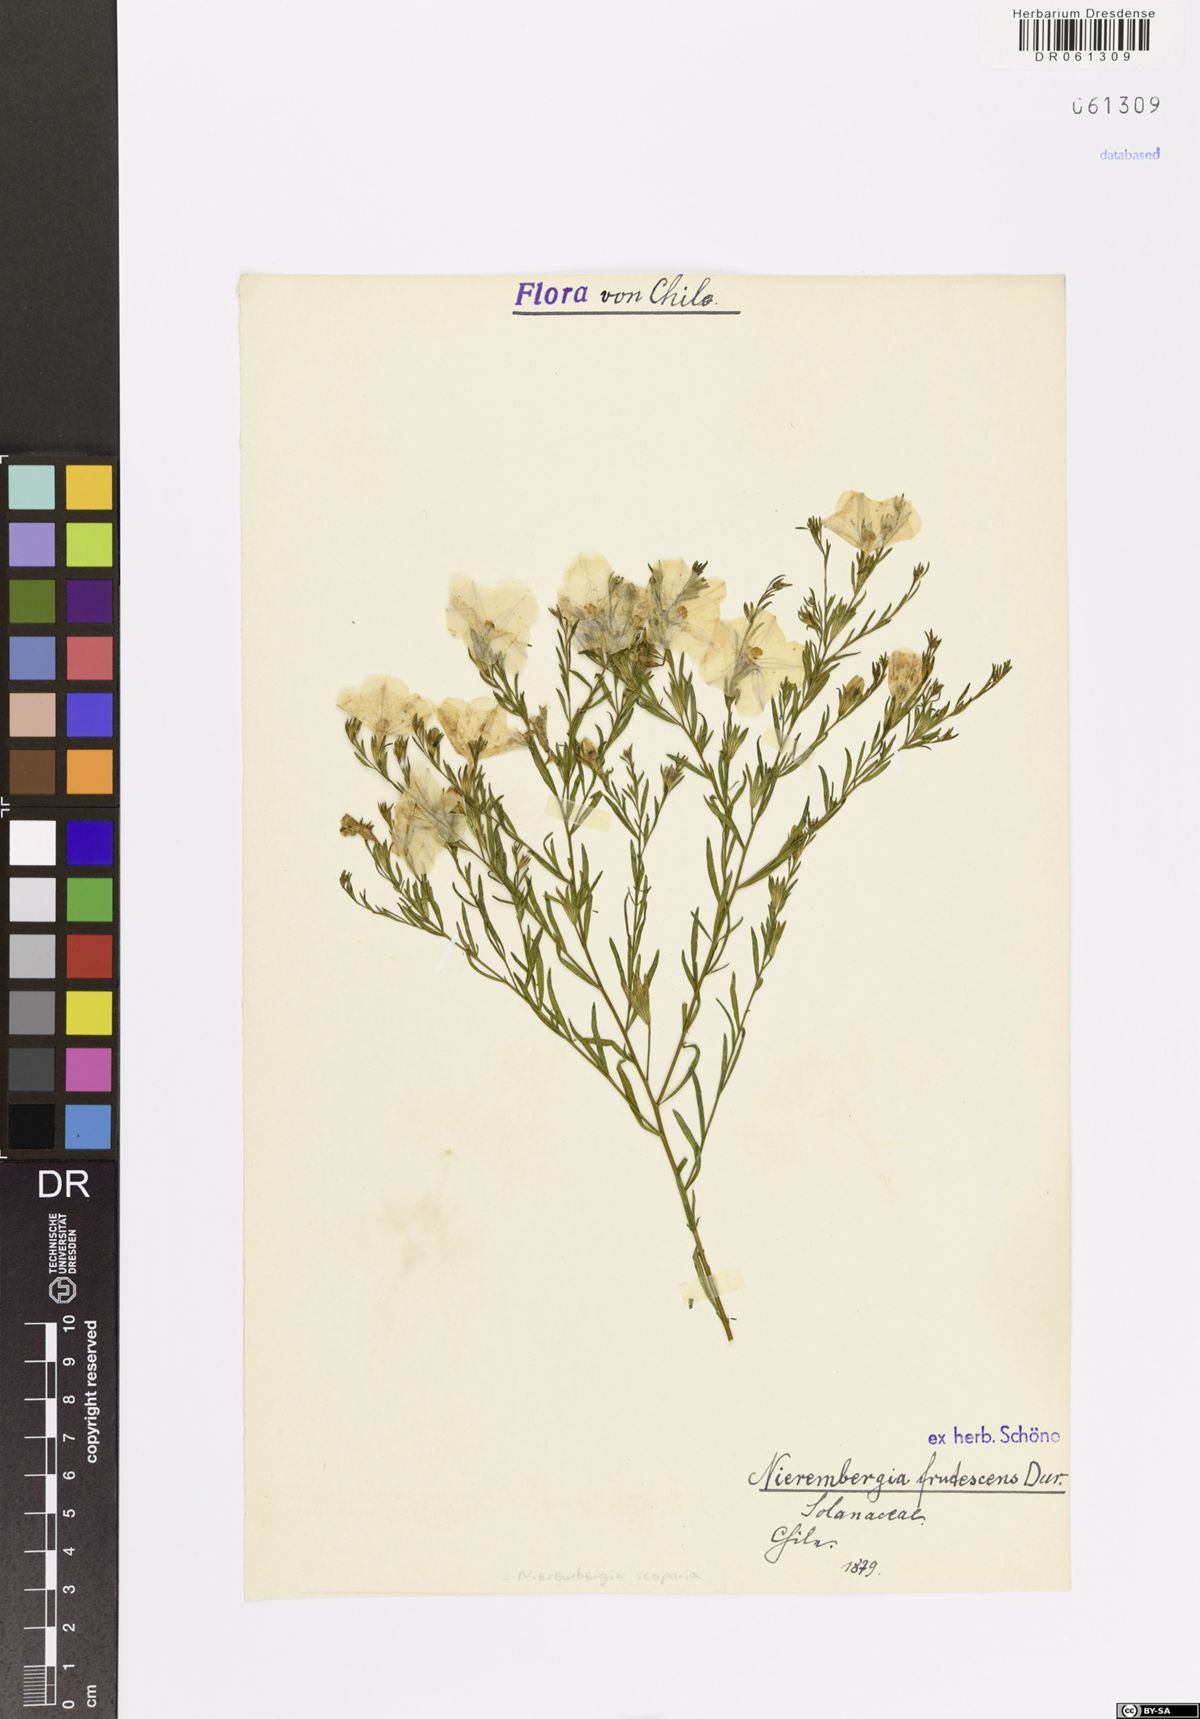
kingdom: Plantae
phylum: Tracheophyta
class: Magnoliopsida
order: Solanales
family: Solanaceae
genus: Nierembergia
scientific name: Nierembergia scoparia
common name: Broom cupflower
